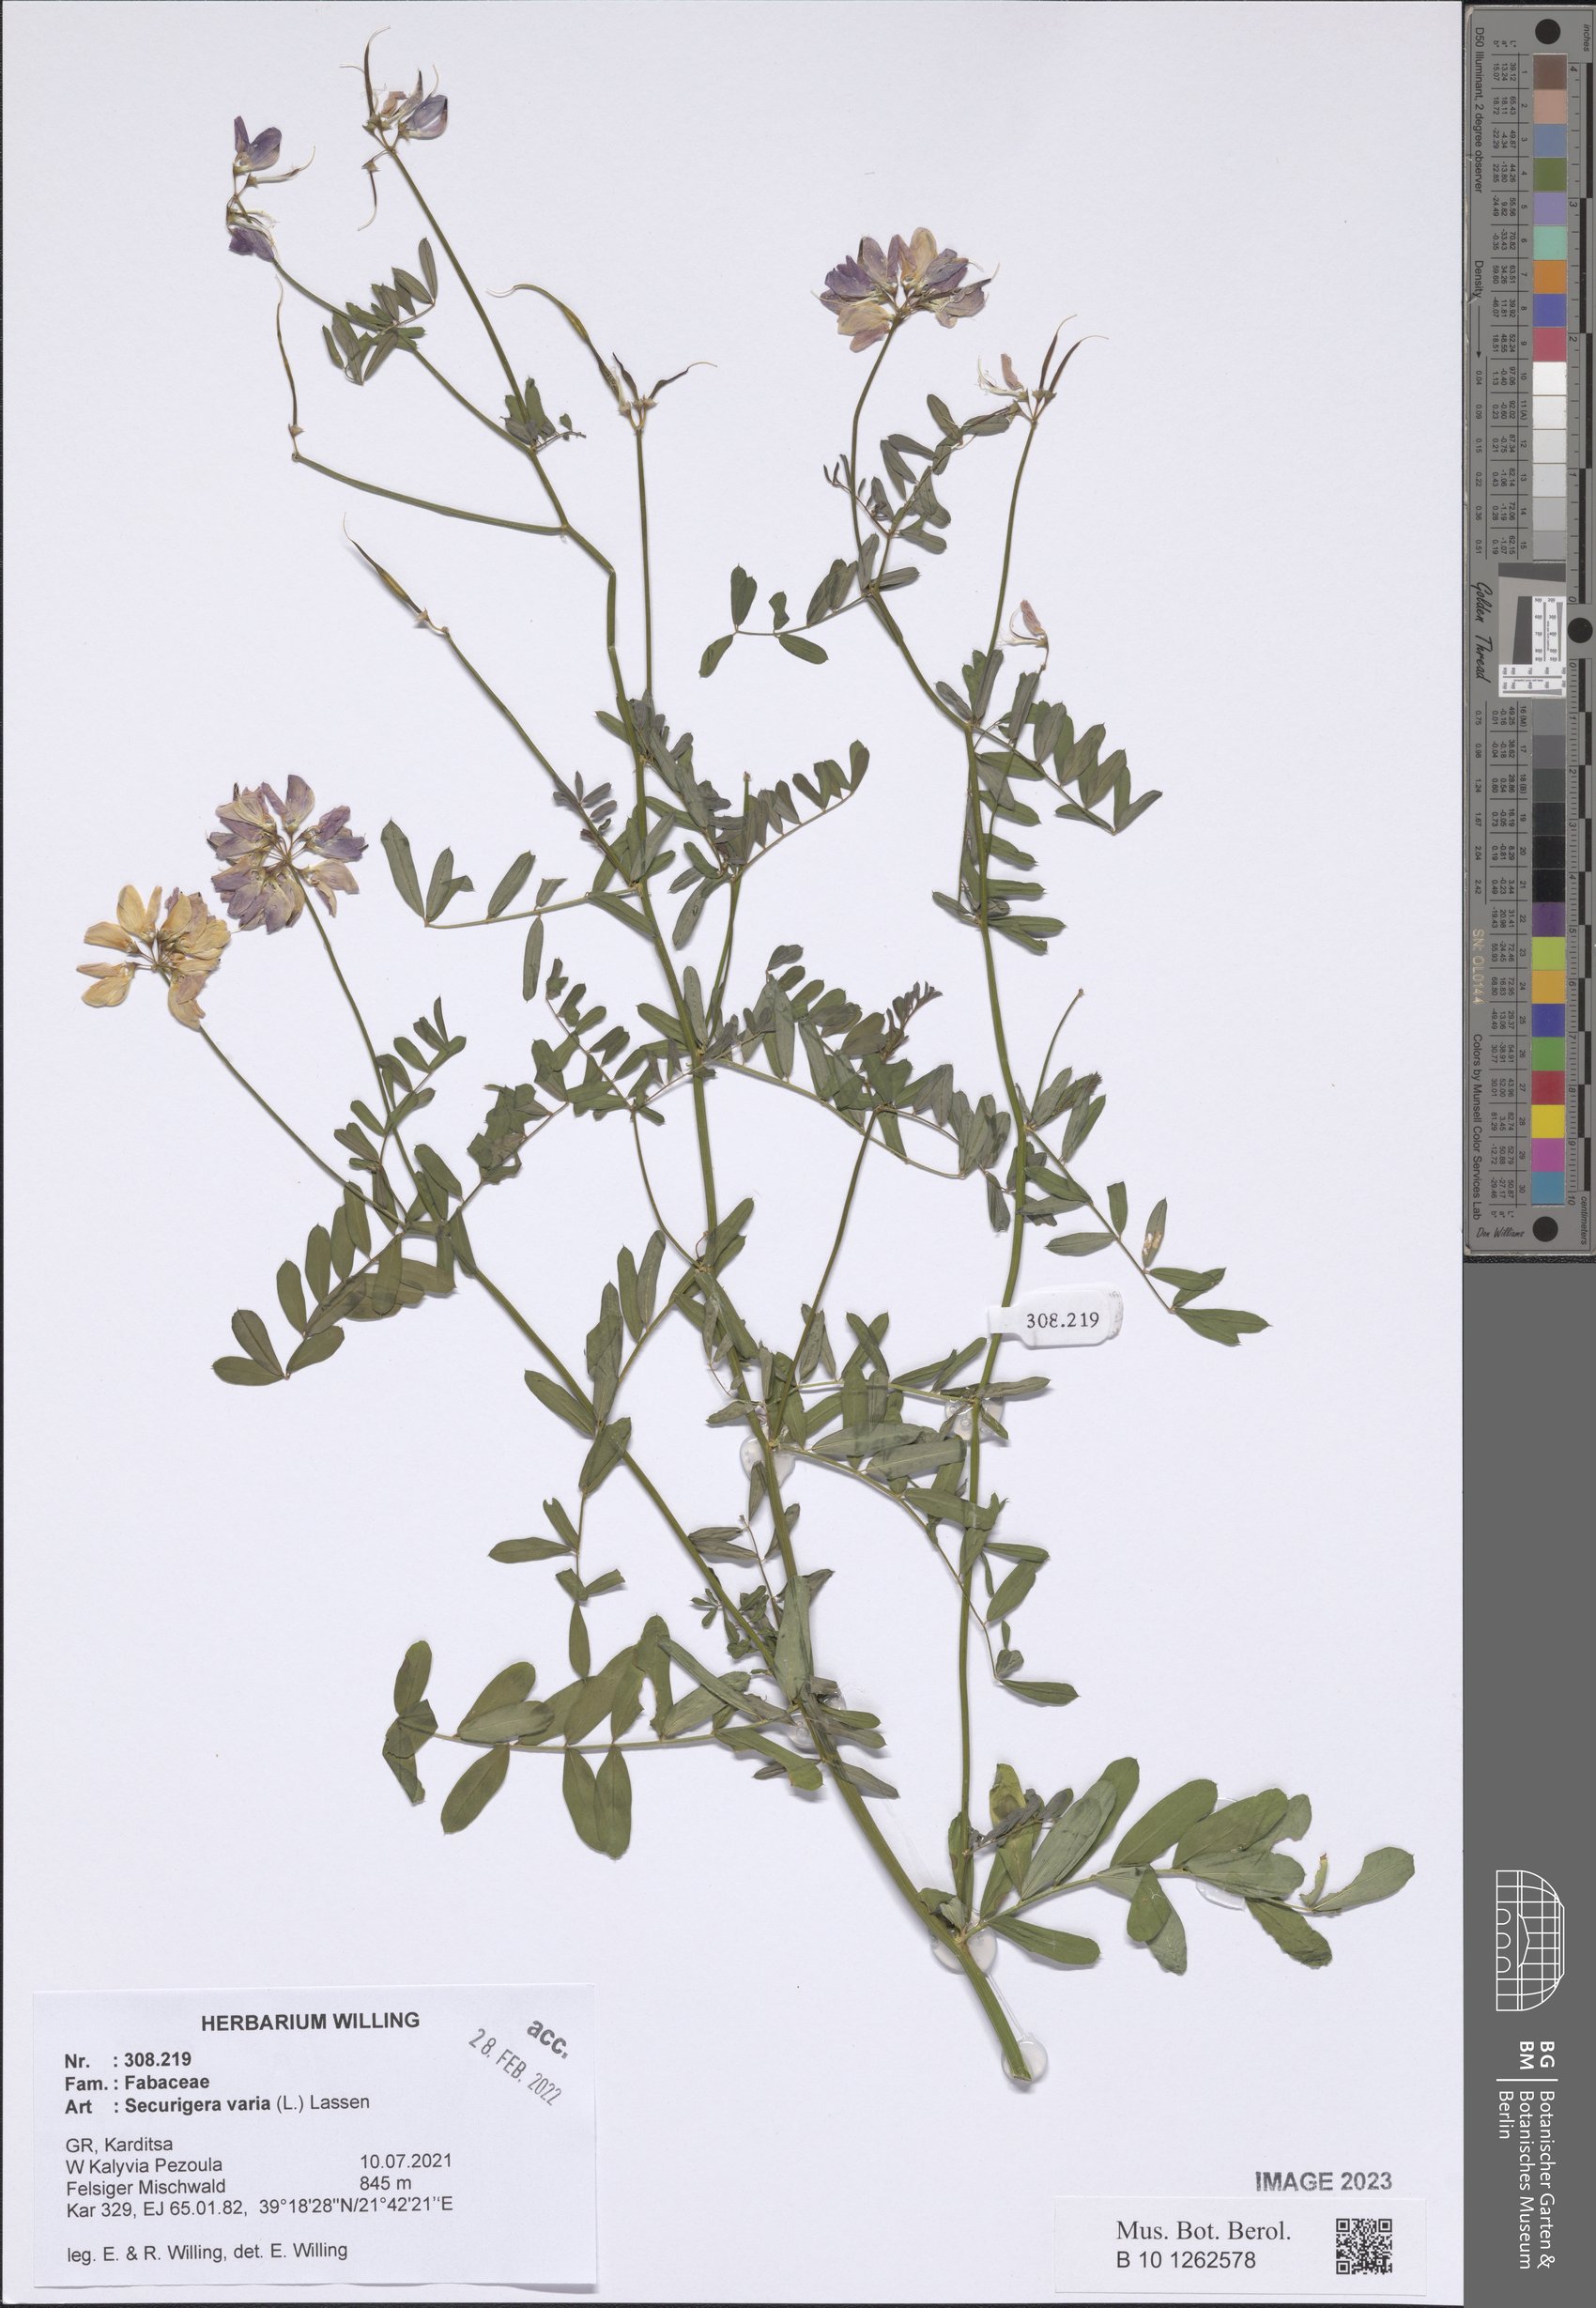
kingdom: Plantae
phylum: Tracheophyta
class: Magnoliopsida
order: Fabales
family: Fabaceae
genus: Coronilla
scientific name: Coronilla varia
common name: Crownvetch
